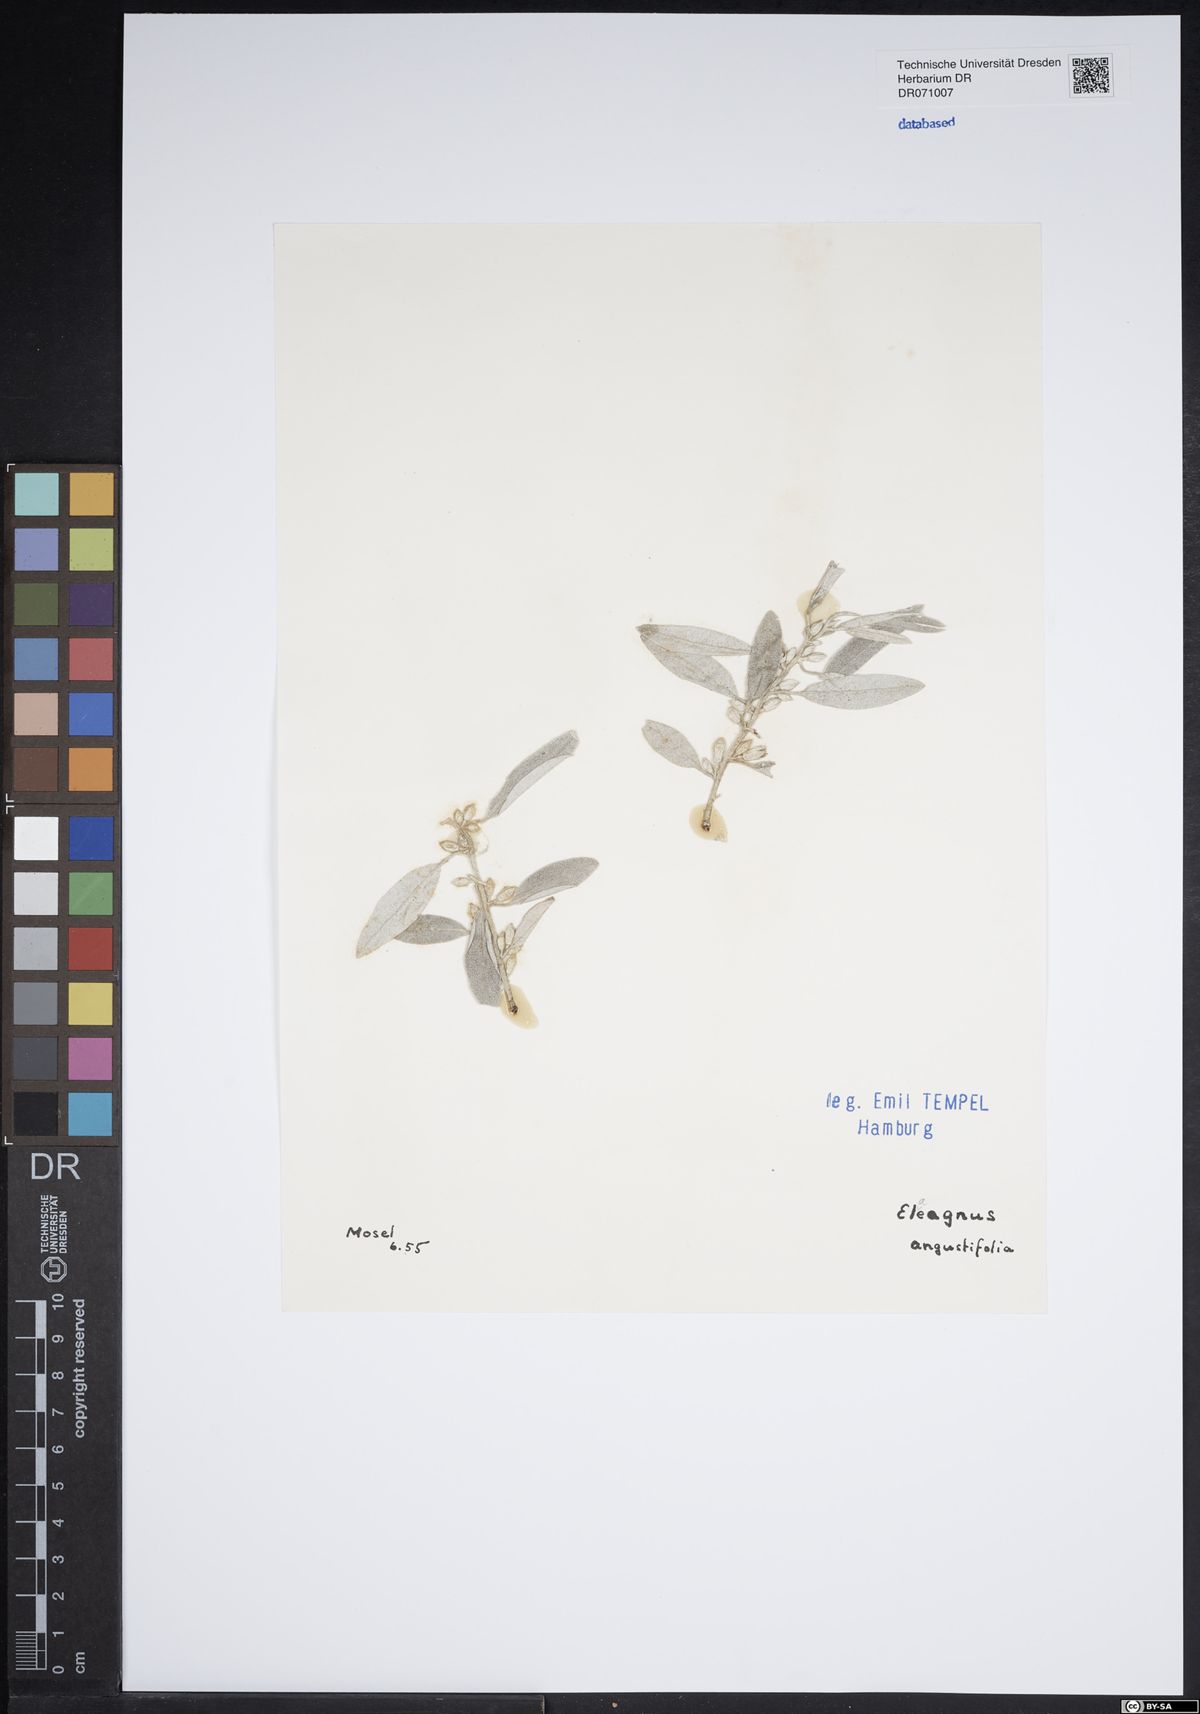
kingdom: Plantae
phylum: Tracheophyta
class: Magnoliopsida
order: Rosales
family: Elaeagnaceae
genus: Elaeagnus
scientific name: Elaeagnus angustifolia
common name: Russian olive
